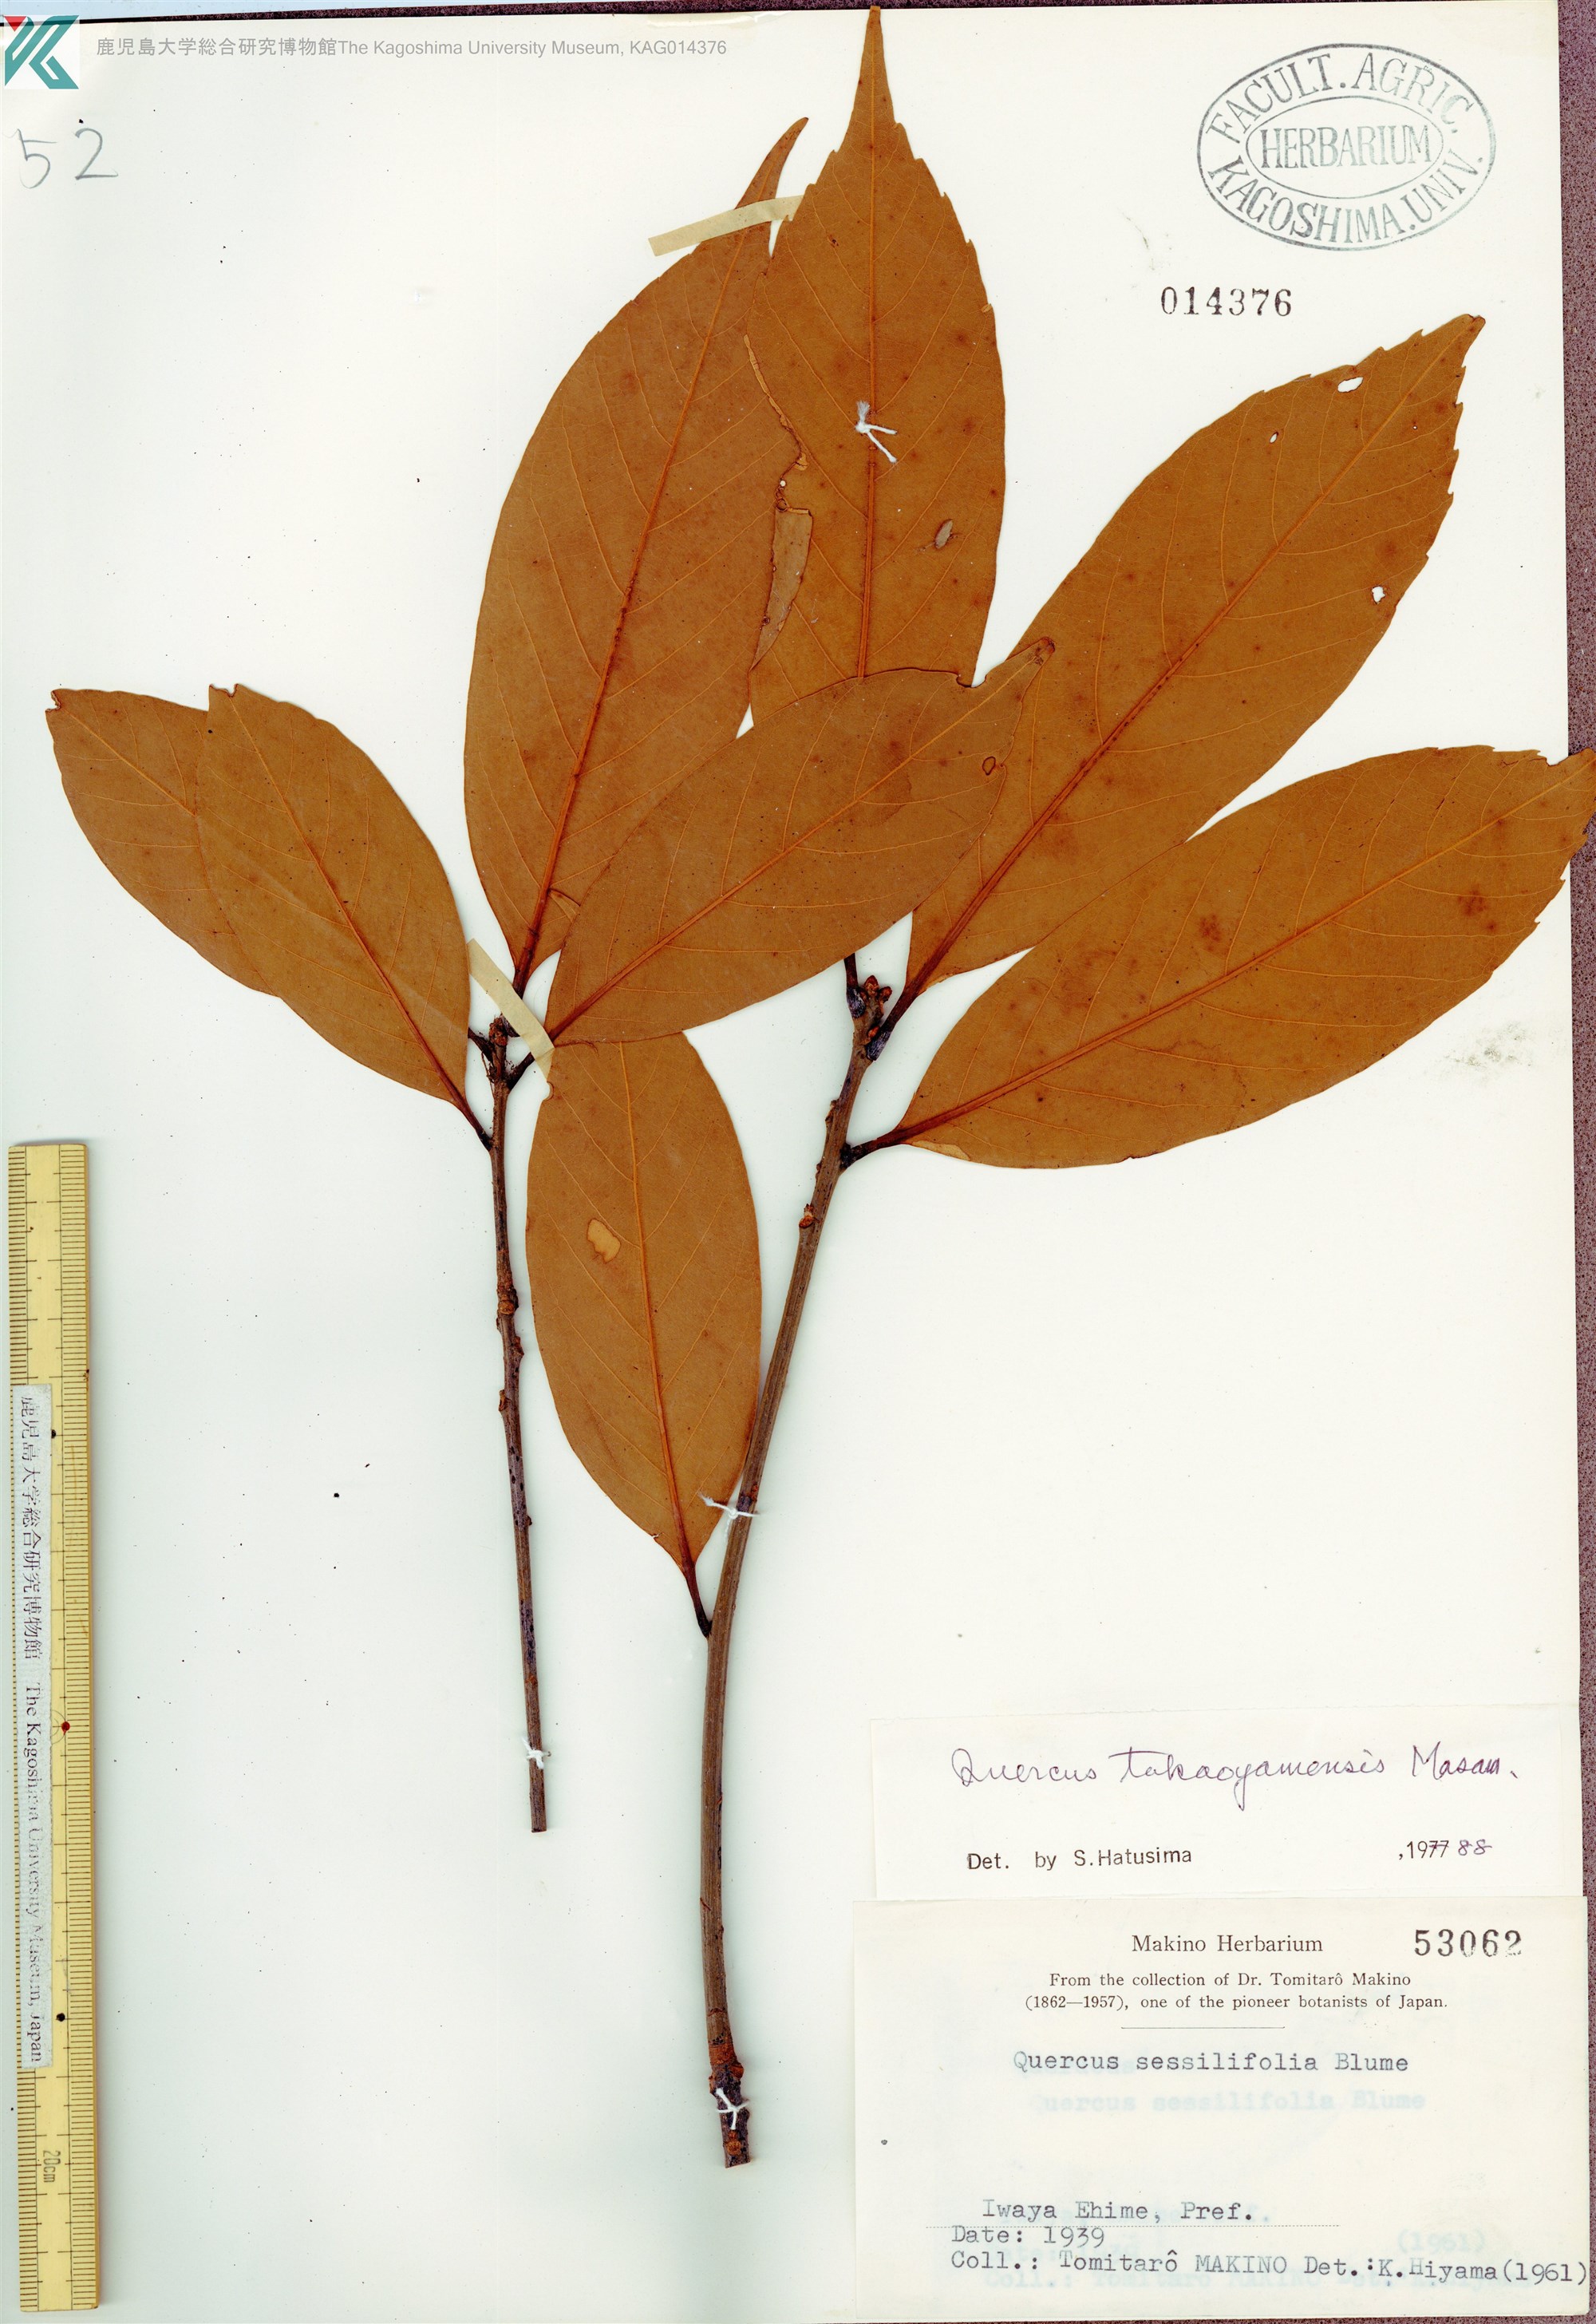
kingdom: Plantae
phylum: Tracheophyta
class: Magnoliopsida
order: Fagales
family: Fagaceae
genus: Quercus
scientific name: Quercus takaoyamensis
